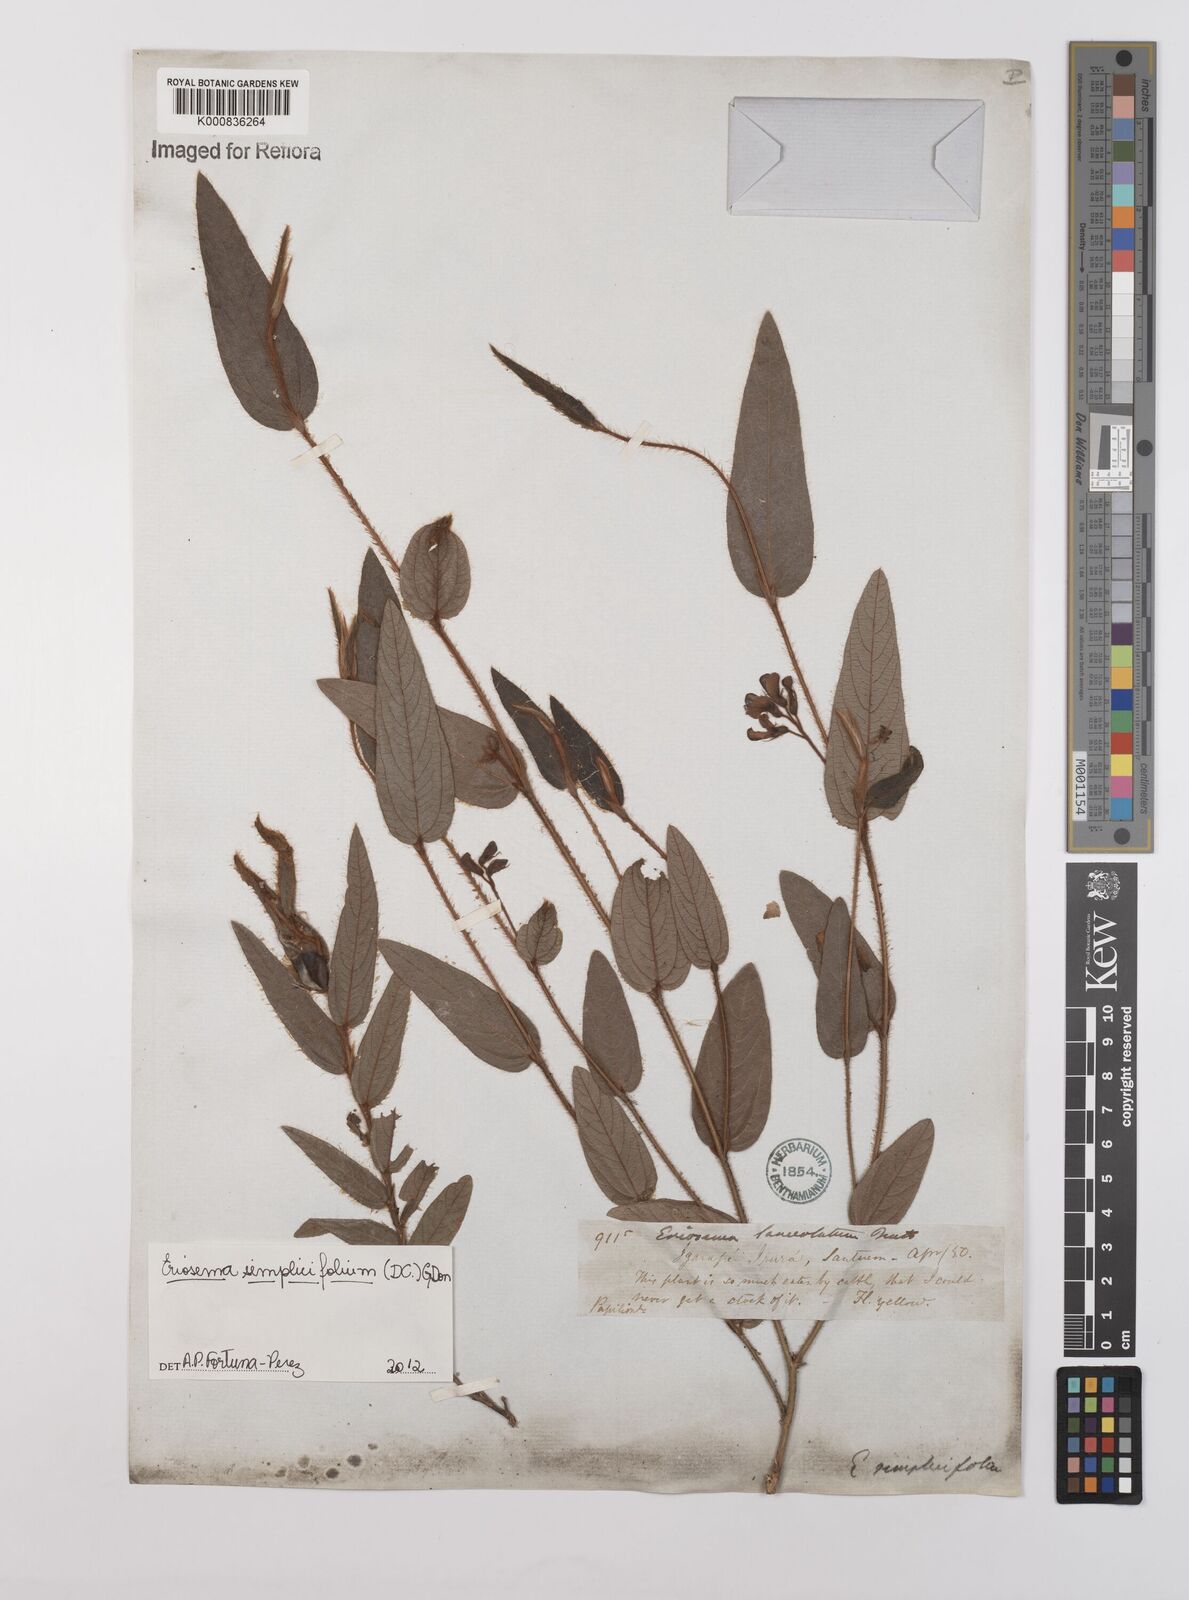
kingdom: Plantae
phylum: Tracheophyta
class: Magnoliopsida
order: Fabales
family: Fabaceae
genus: Eriosema
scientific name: Eriosema simplicifolium
